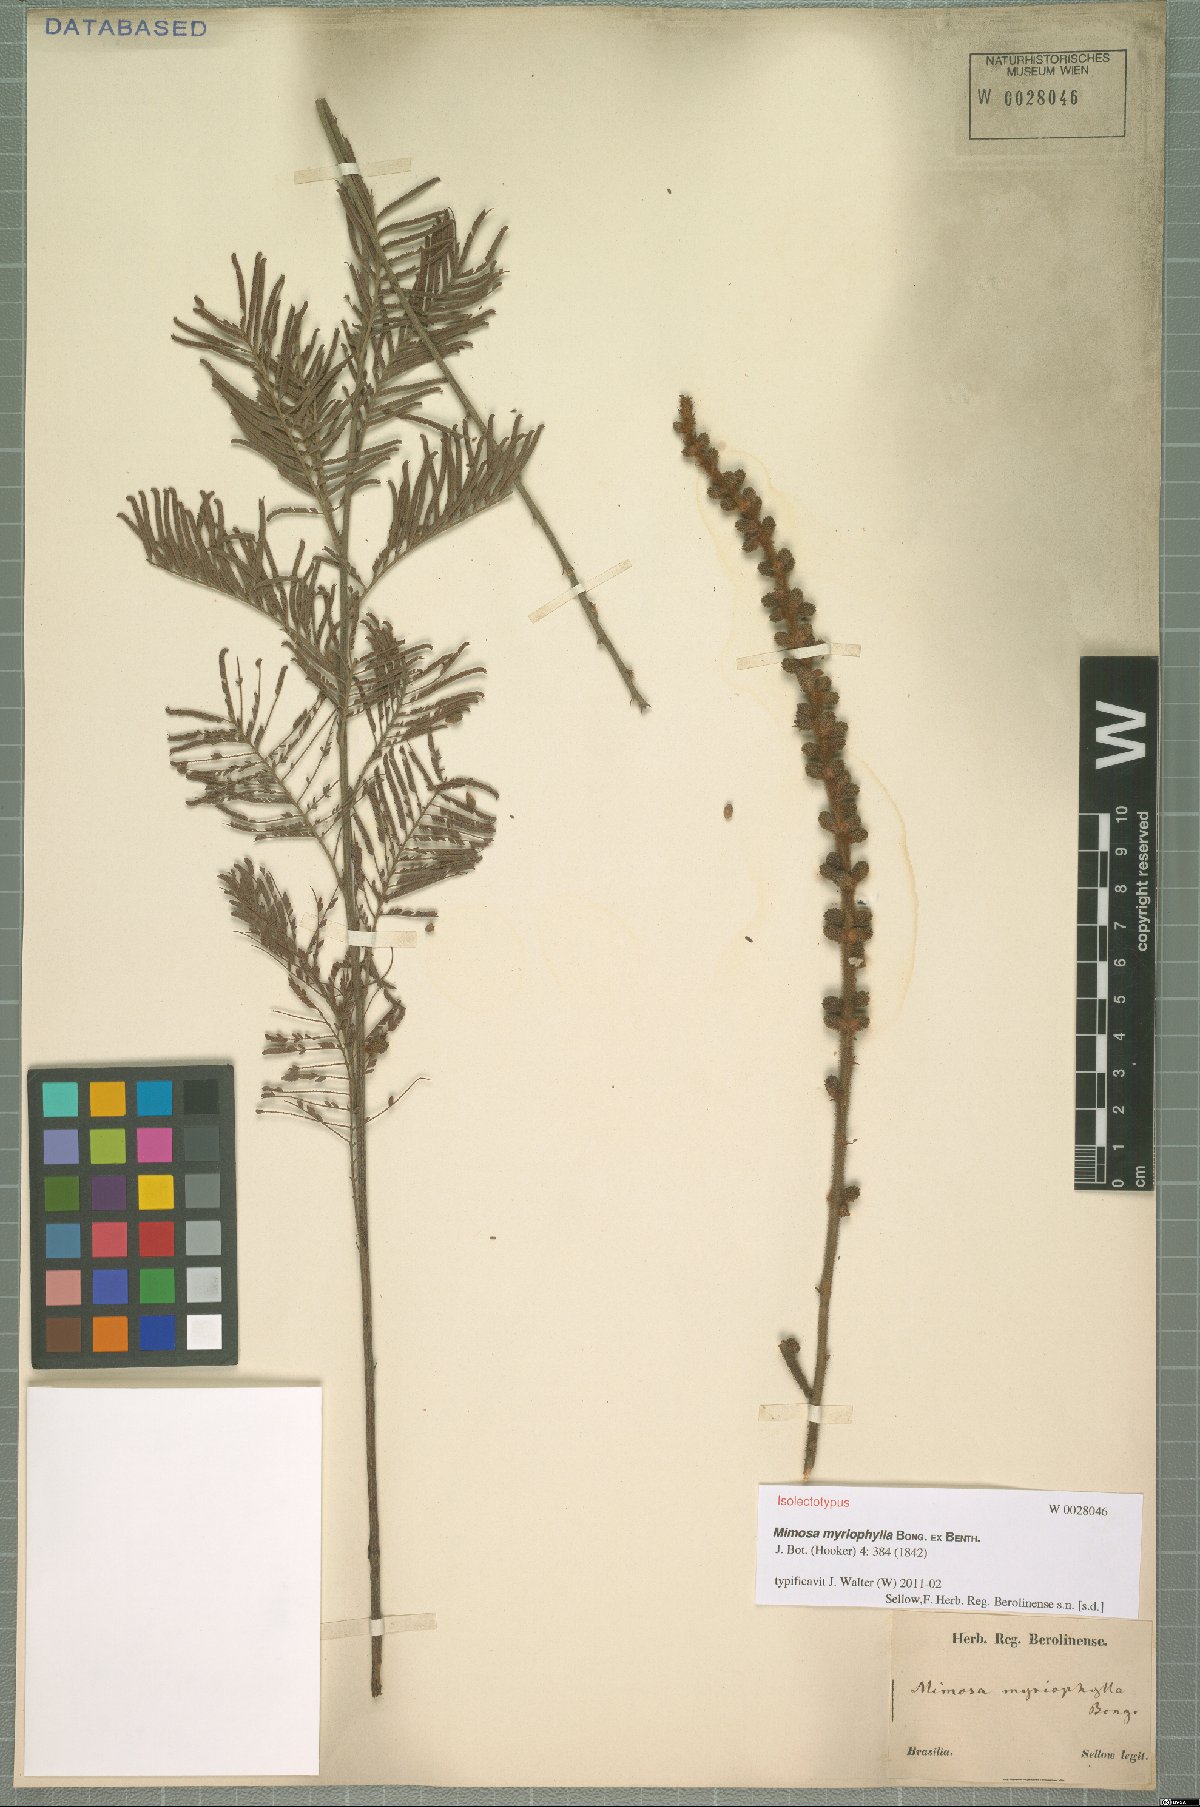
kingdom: Plantae
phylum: Tracheophyta
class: Magnoliopsida
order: Fabales
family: Fabaceae
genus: Mimosa
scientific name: Mimosa myriophylla
